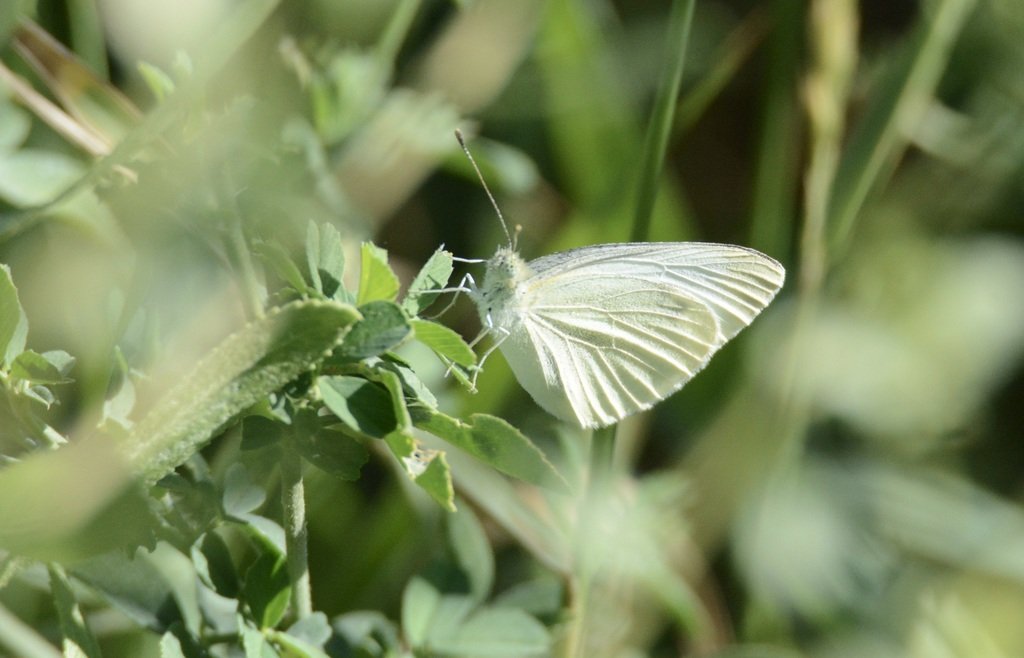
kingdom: Animalia
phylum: Arthropoda
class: Insecta
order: Lepidoptera
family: Pieridae
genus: Pieris
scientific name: Pieris rapae
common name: Cabbage White
